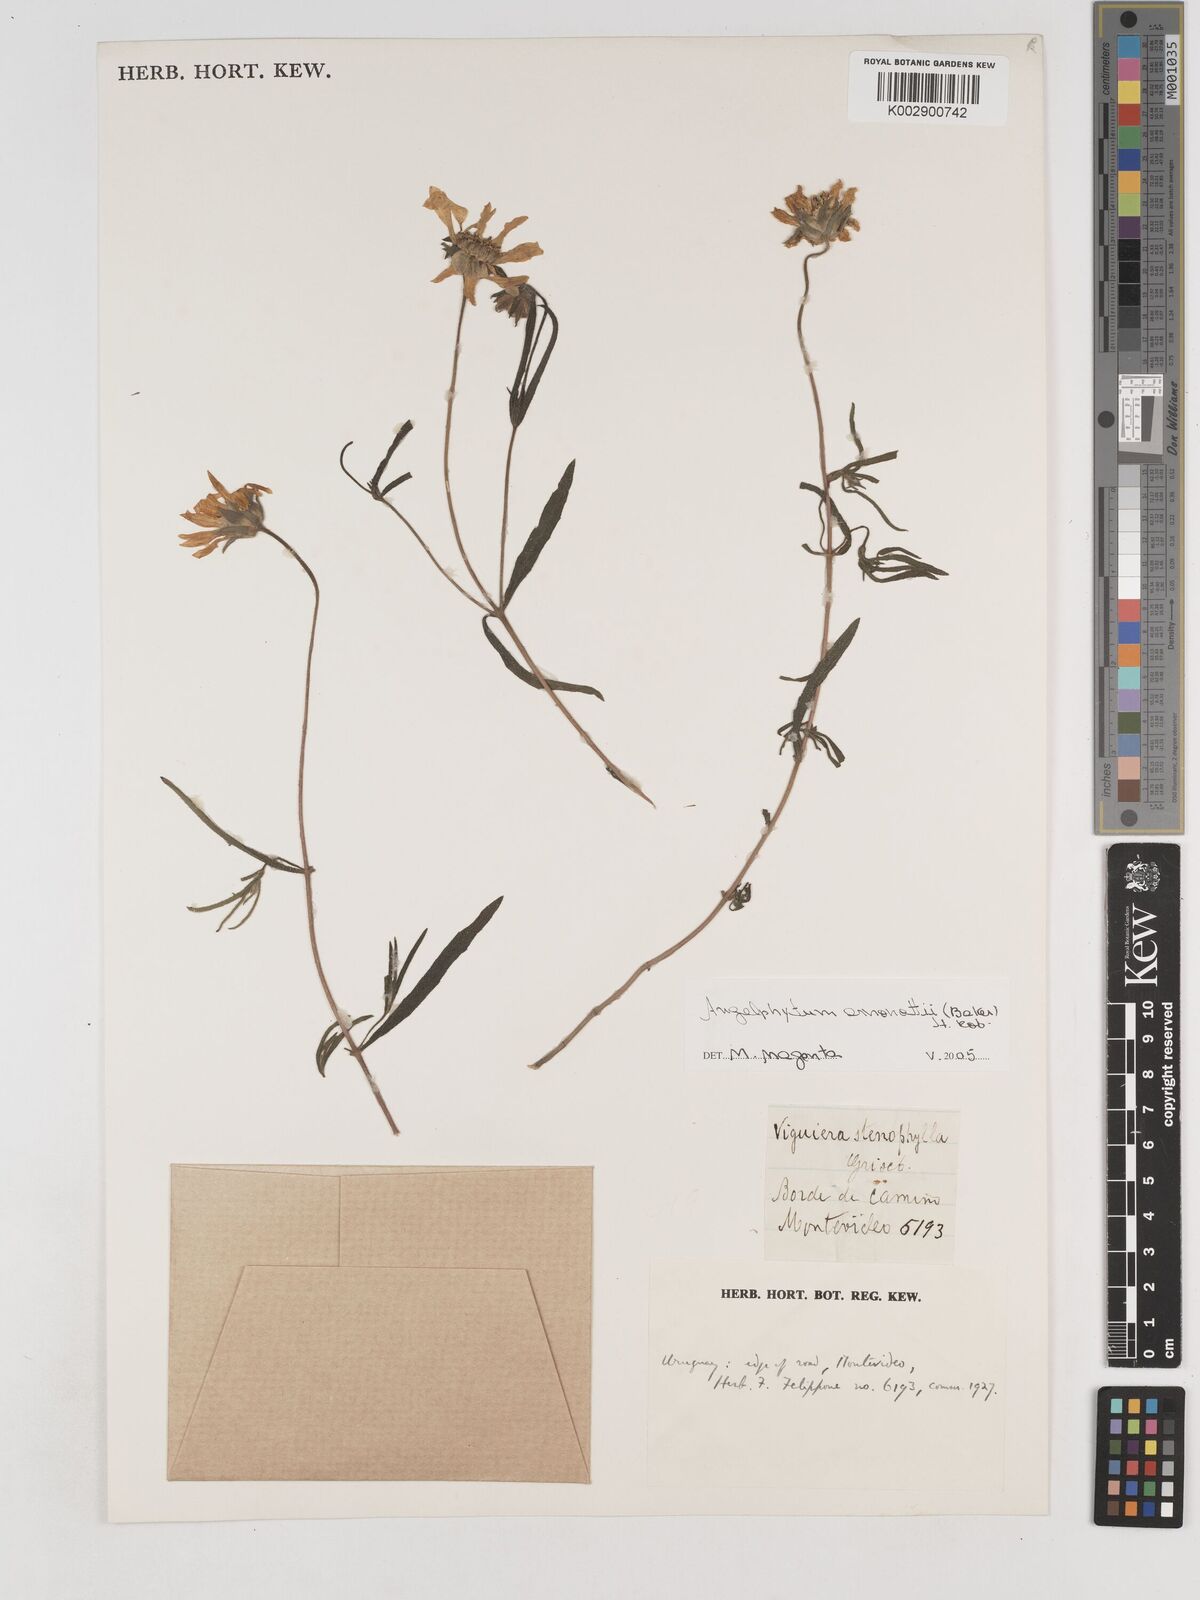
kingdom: Plantae
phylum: Tracheophyta
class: Magnoliopsida
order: Asterales
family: Asteraceae
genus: Dimerostemma
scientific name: Dimerostemma oppositifolium
